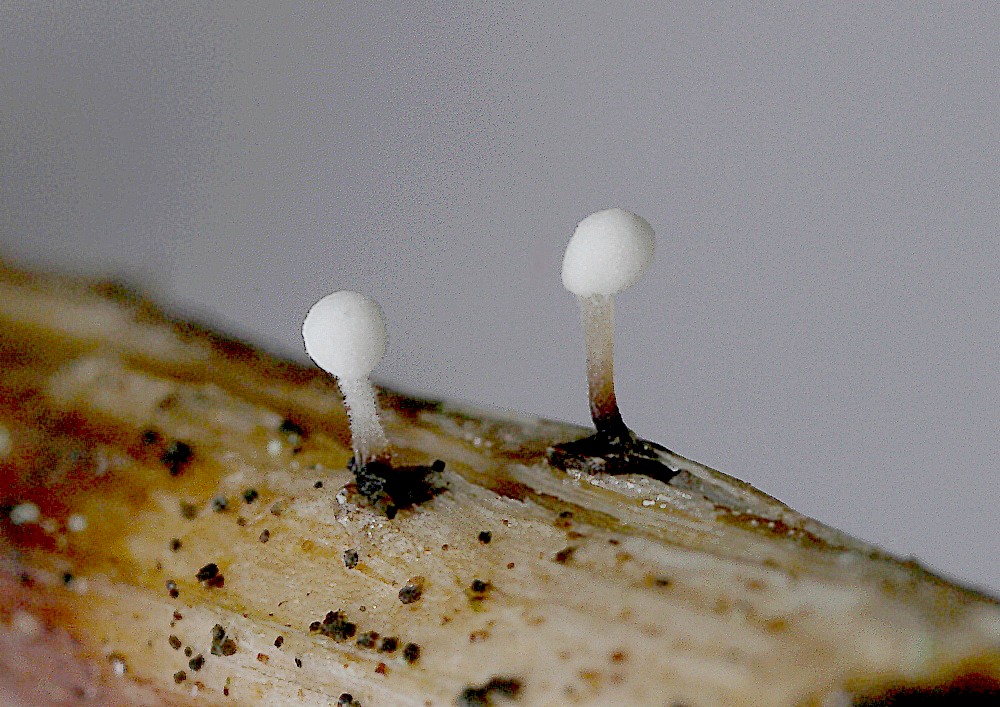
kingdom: Fungi
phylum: Basidiomycota
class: Agaricomycetes
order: Agaricales
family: Typhulaceae
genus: Typhula
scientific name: Typhula sphaeroidea
